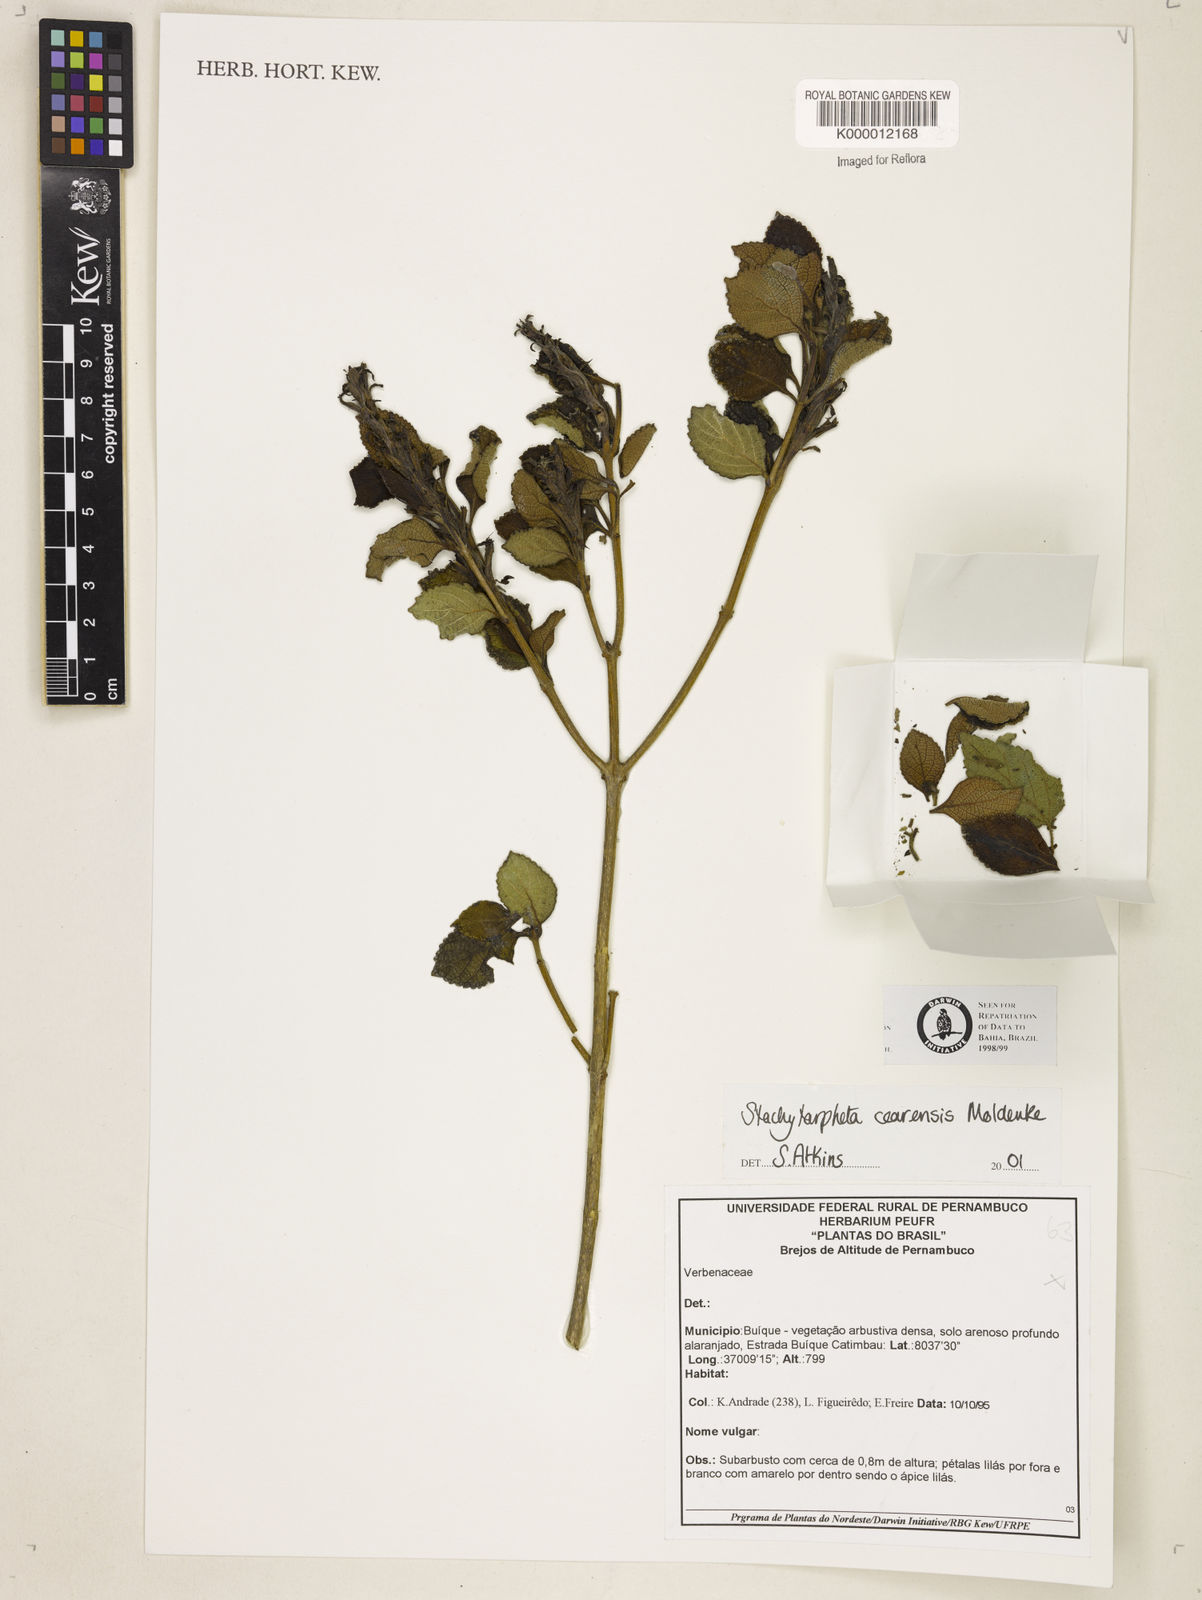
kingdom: Plantae
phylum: Tracheophyta
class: Magnoliopsida
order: Lamiales
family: Verbenaceae
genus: Stachytarpheta
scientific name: Stachytarpheta
